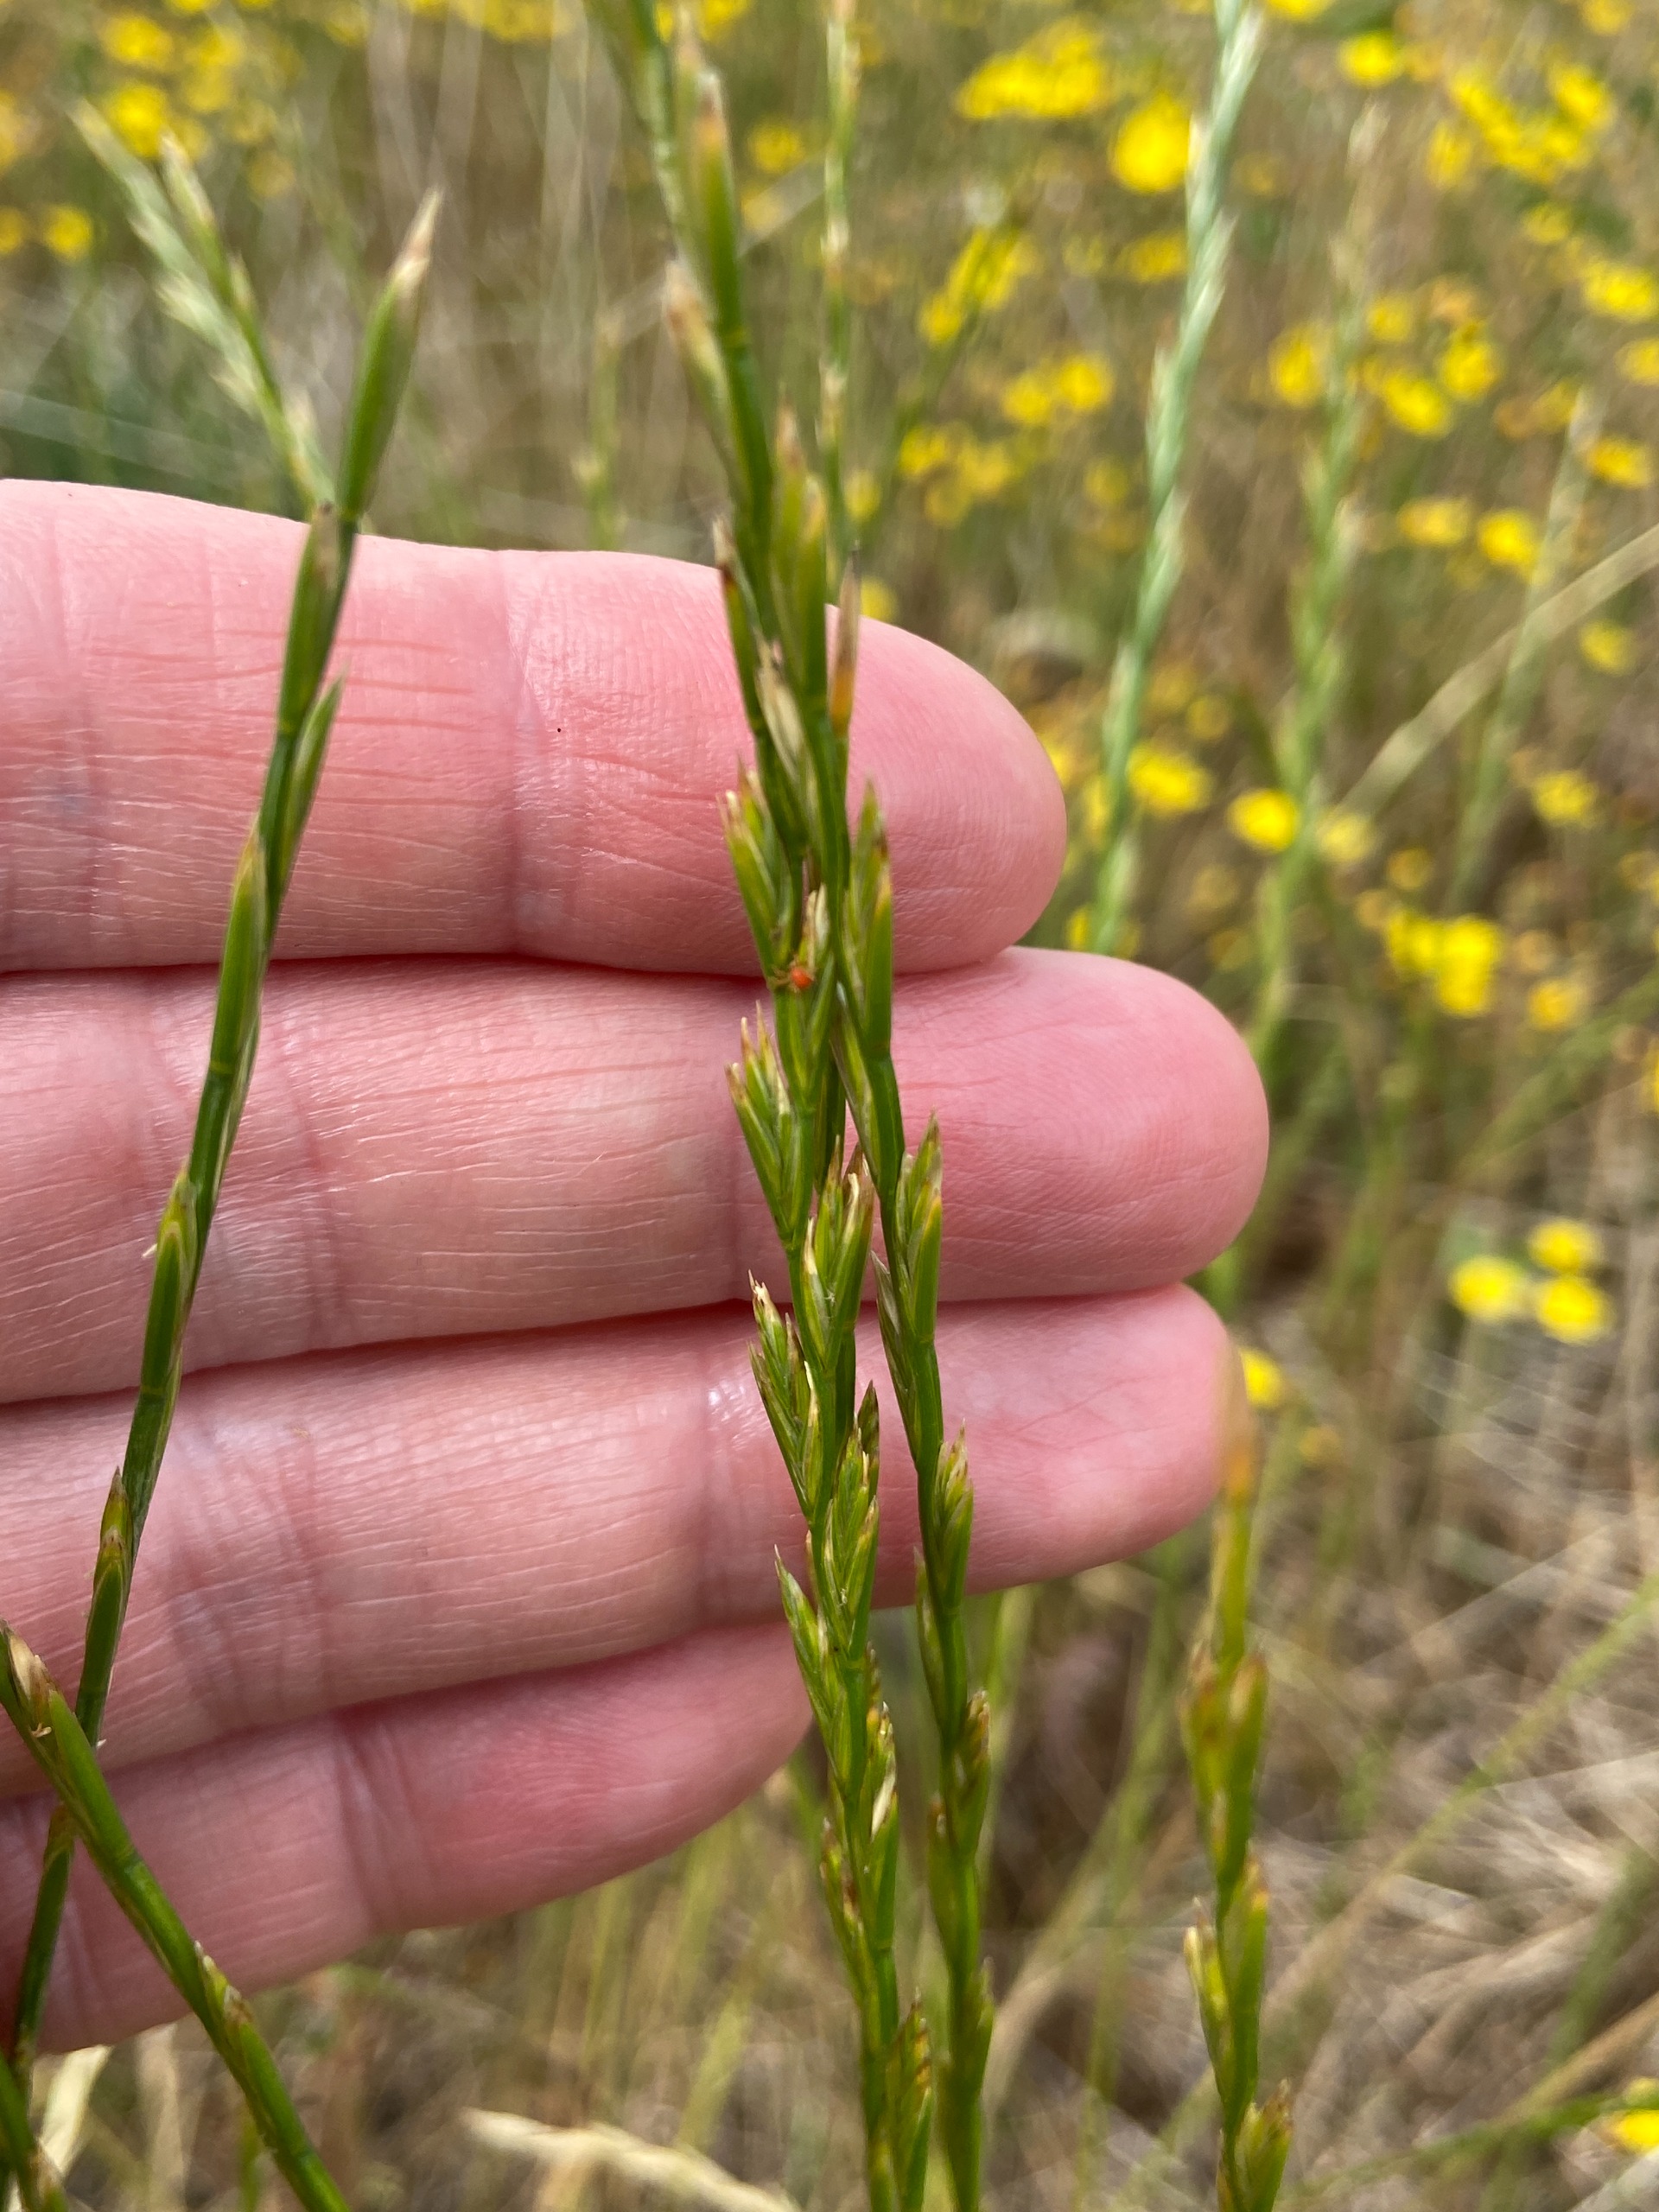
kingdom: Plantae
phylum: Tracheophyta
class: Liliopsida
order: Poales
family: Poaceae
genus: Lolium
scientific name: Lolium perenne
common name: Almindelig rajgræs
